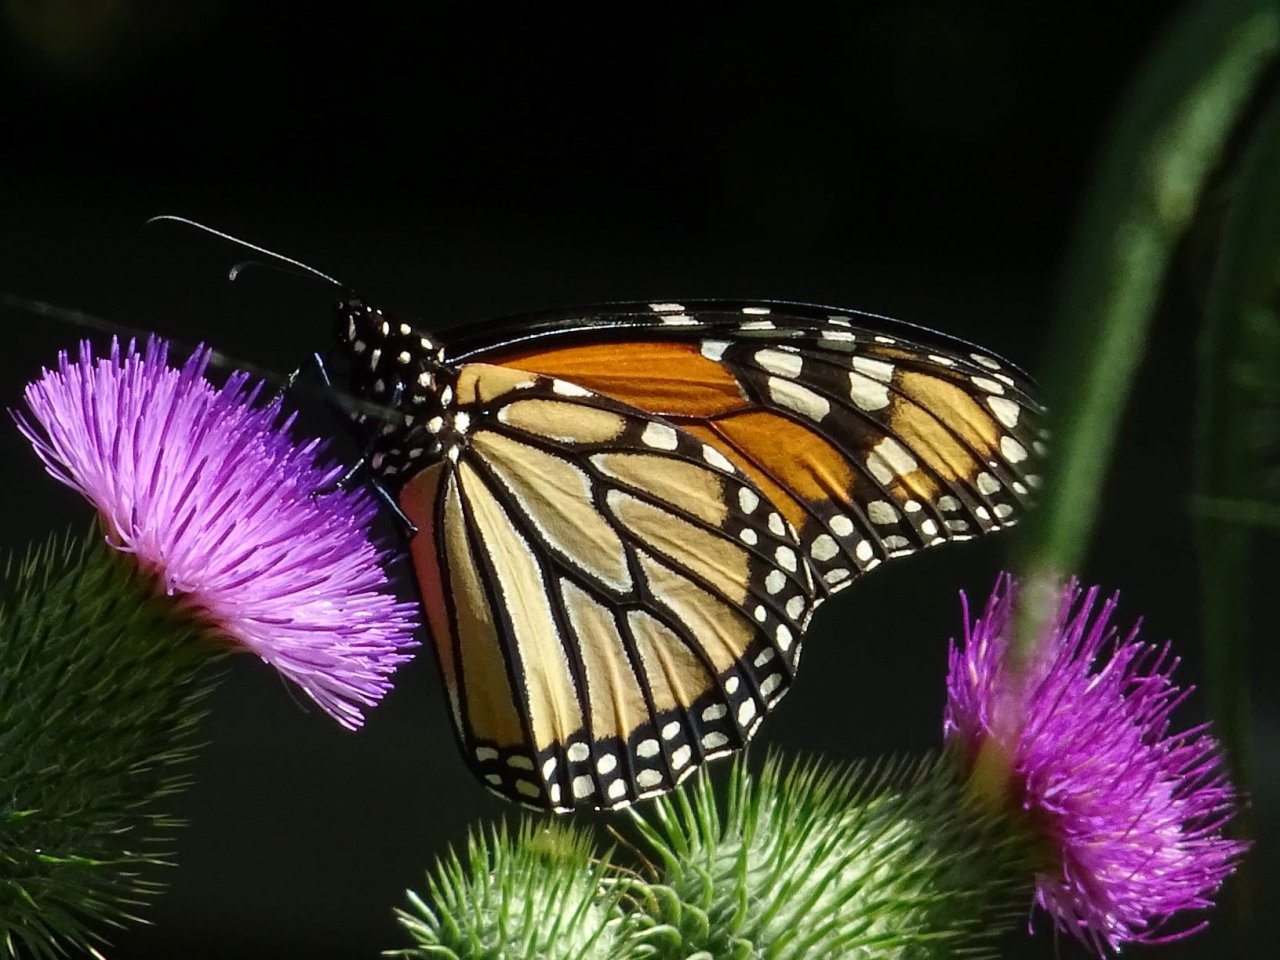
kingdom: Animalia
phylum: Arthropoda
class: Insecta
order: Lepidoptera
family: Nymphalidae
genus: Danaus
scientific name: Danaus plexippus
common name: Monarch
